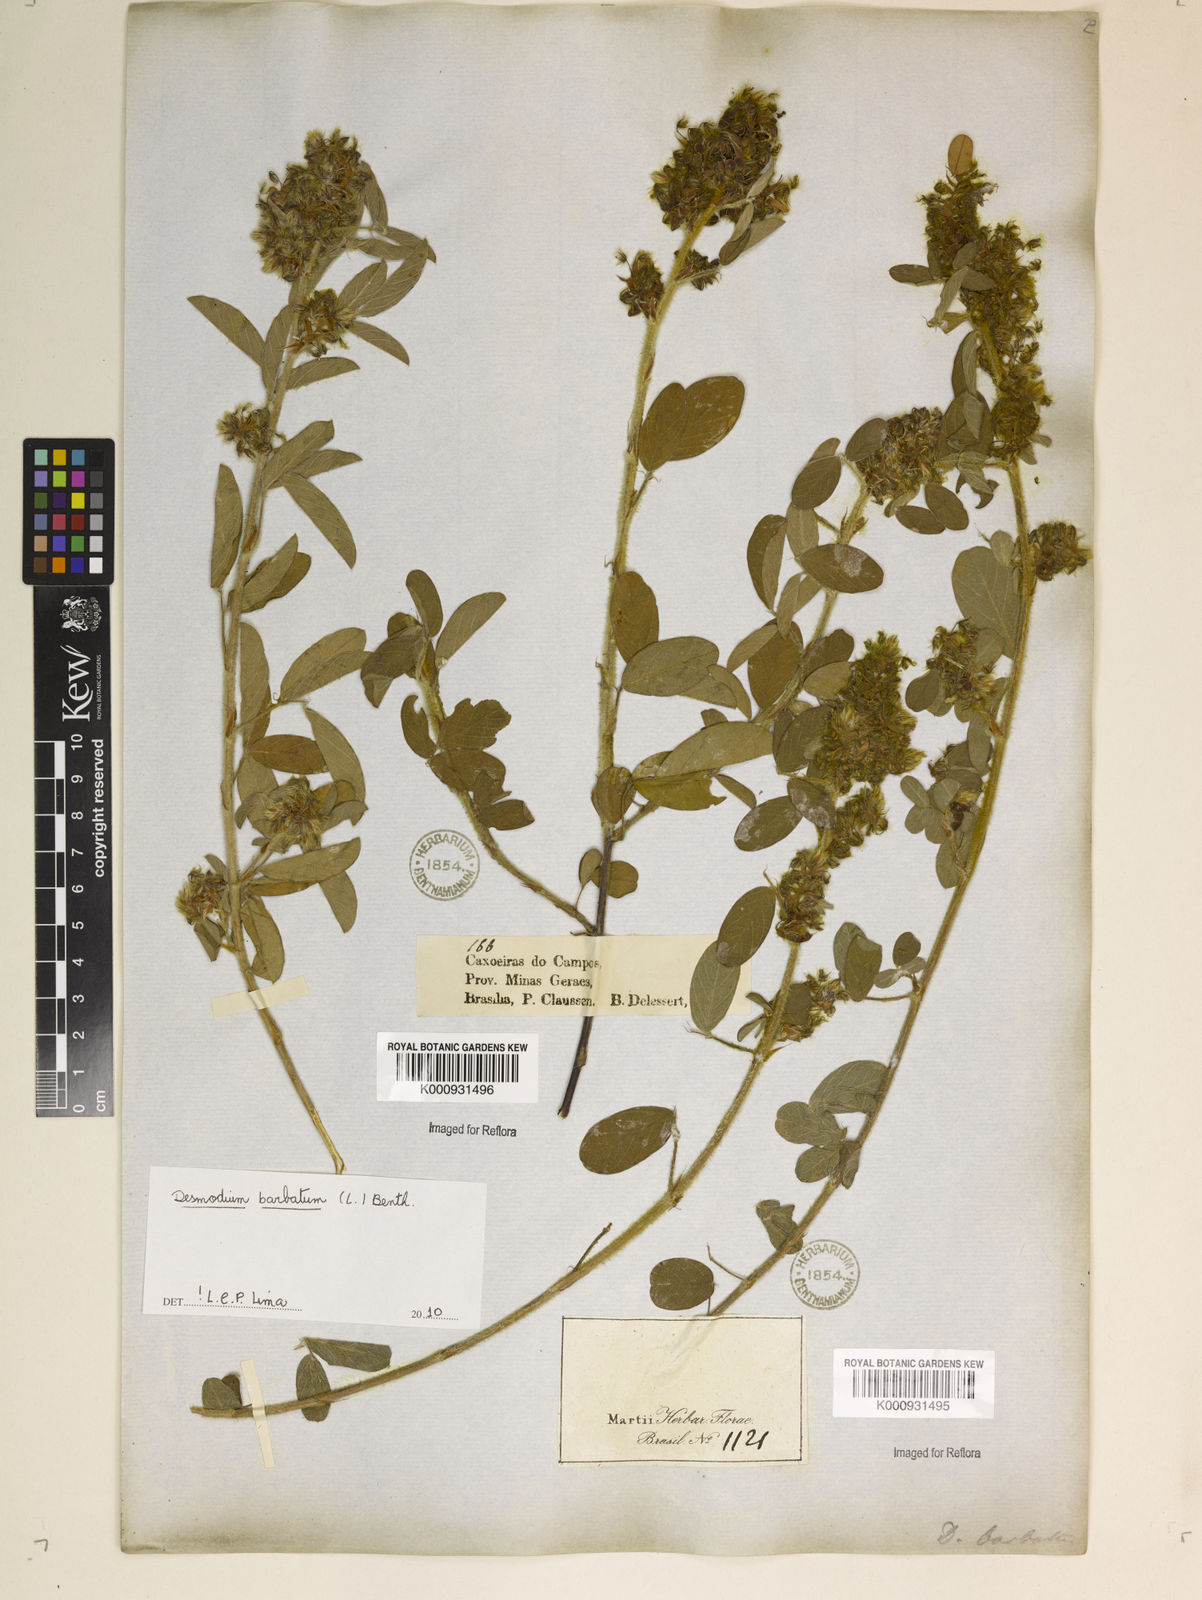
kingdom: Plantae
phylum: Tracheophyta
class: Magnoliopsida
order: Fabales
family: Fabaceae
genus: Grona
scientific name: Grona barbata
